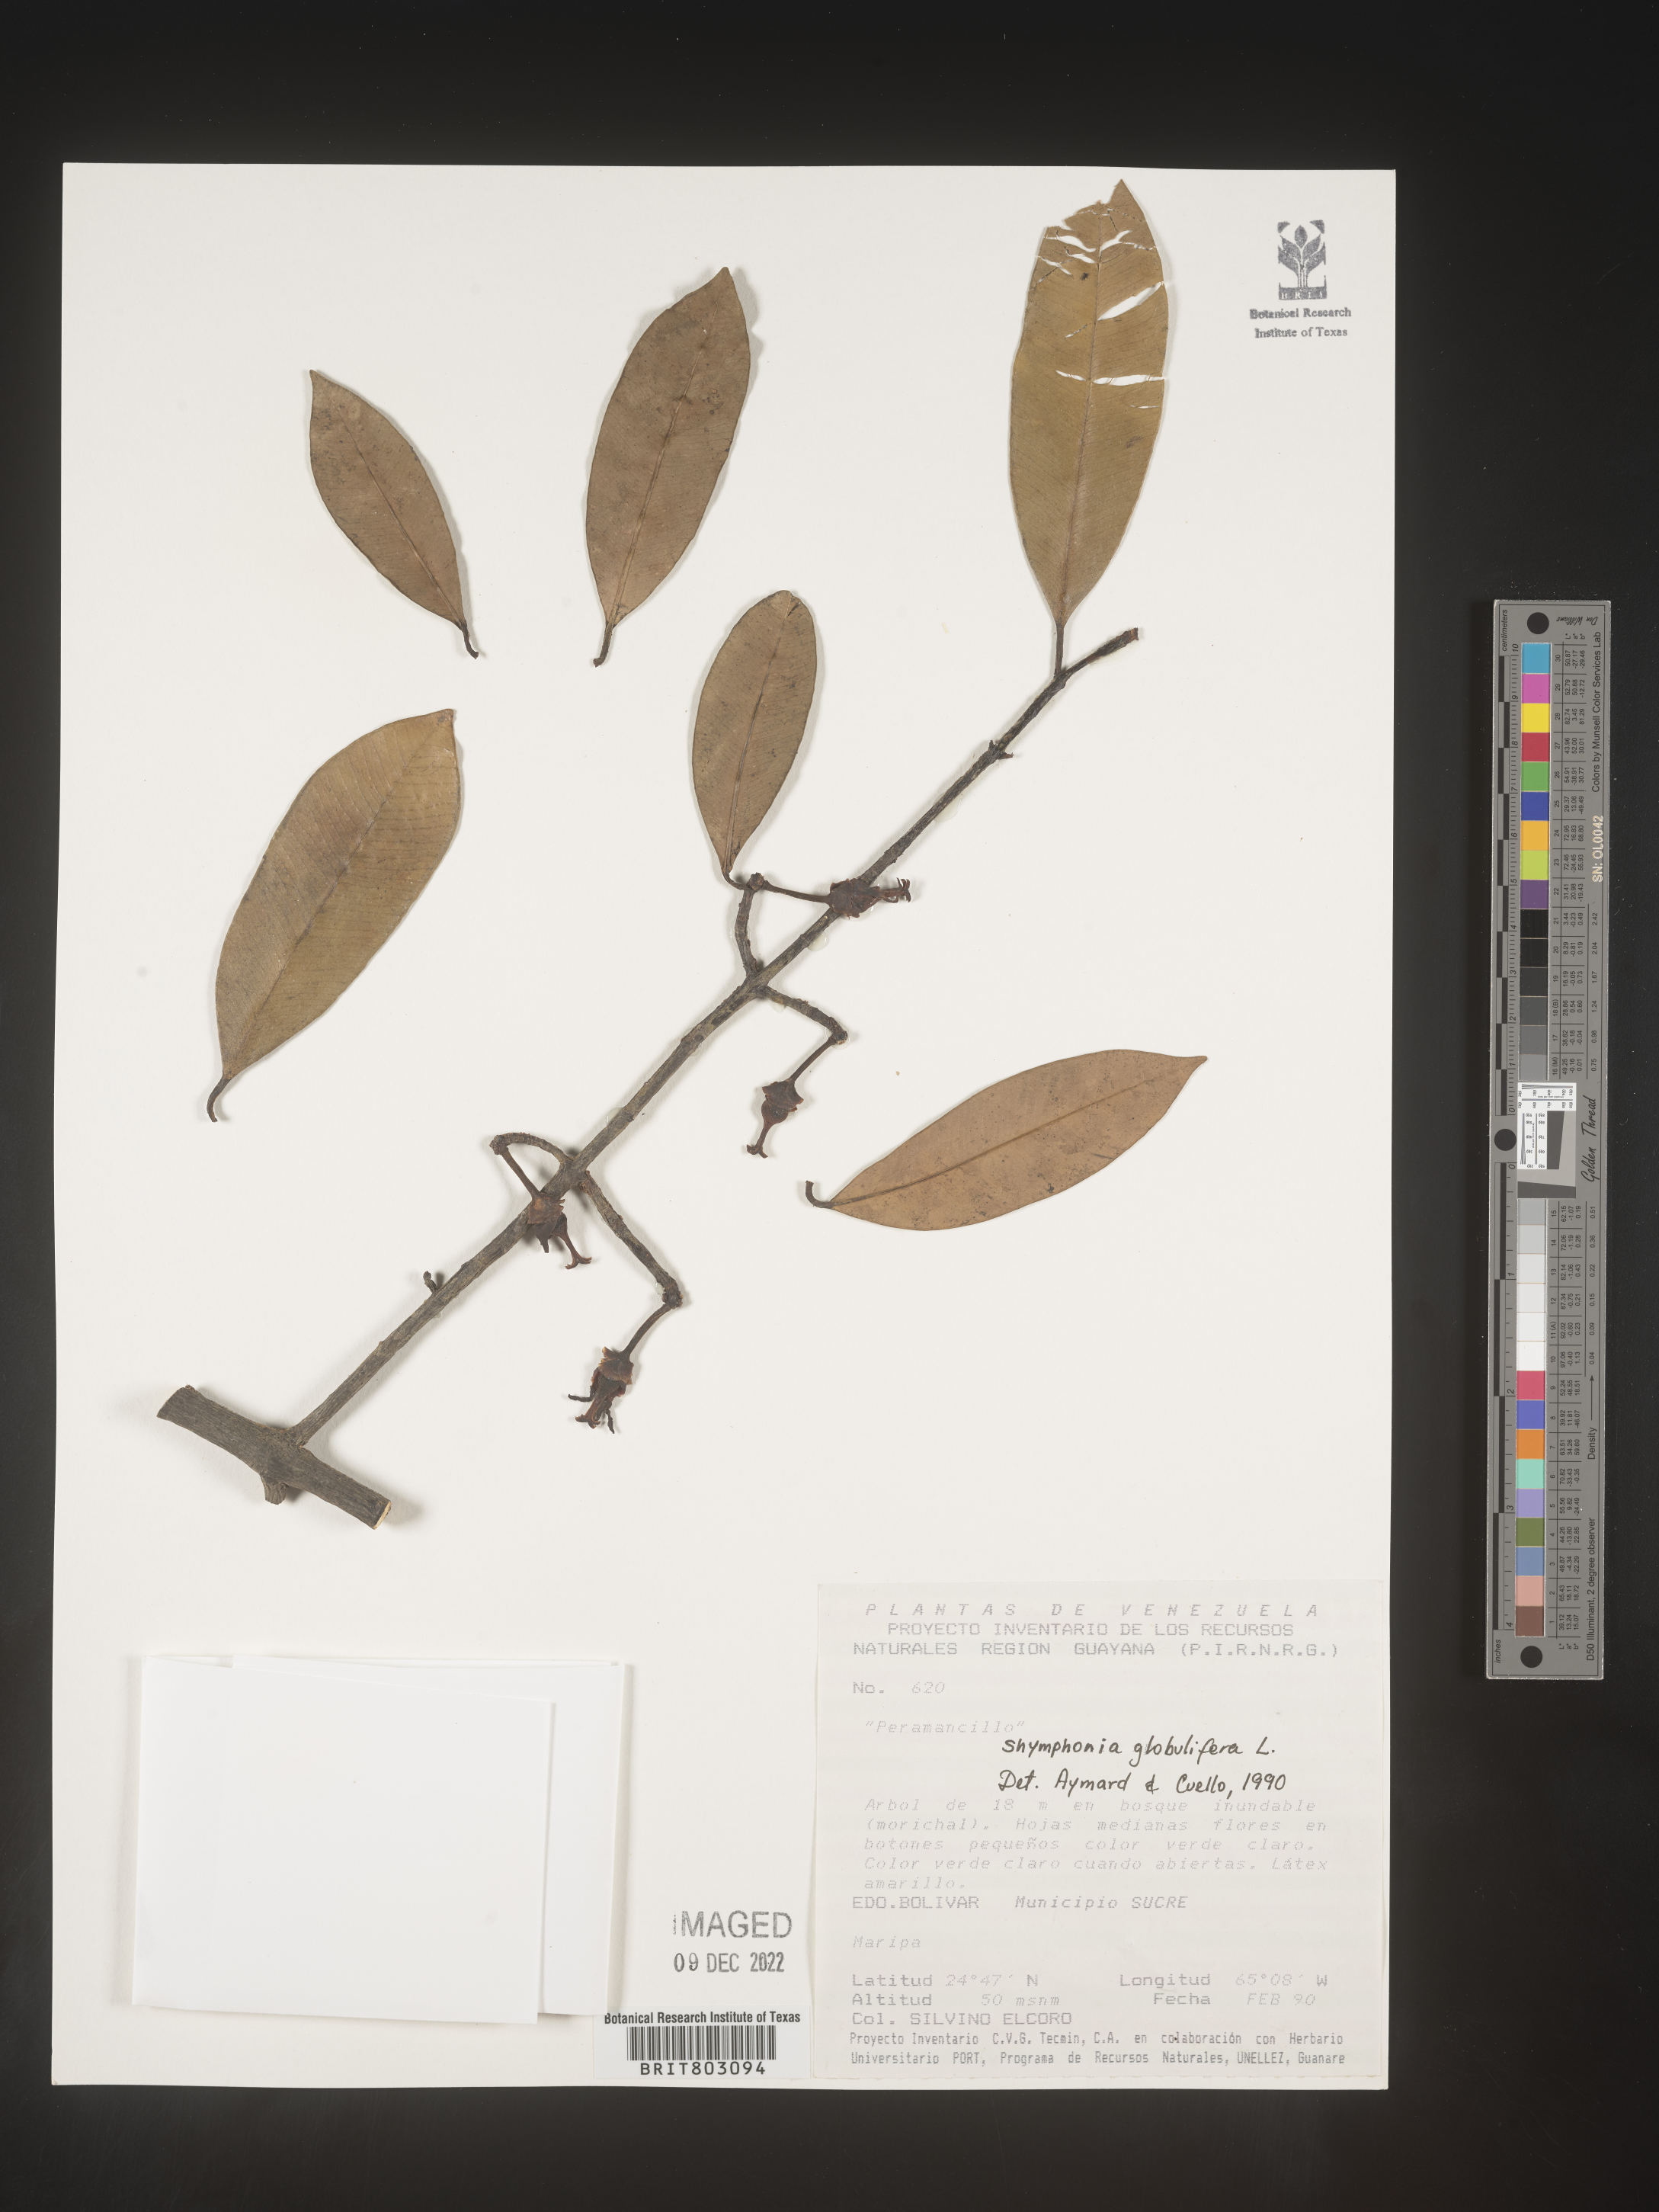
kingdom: Plantae
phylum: Tracheophyta
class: Magnoliopsida
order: Malpighiales
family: Clusiaceae
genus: Symphonia
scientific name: Symphonia
